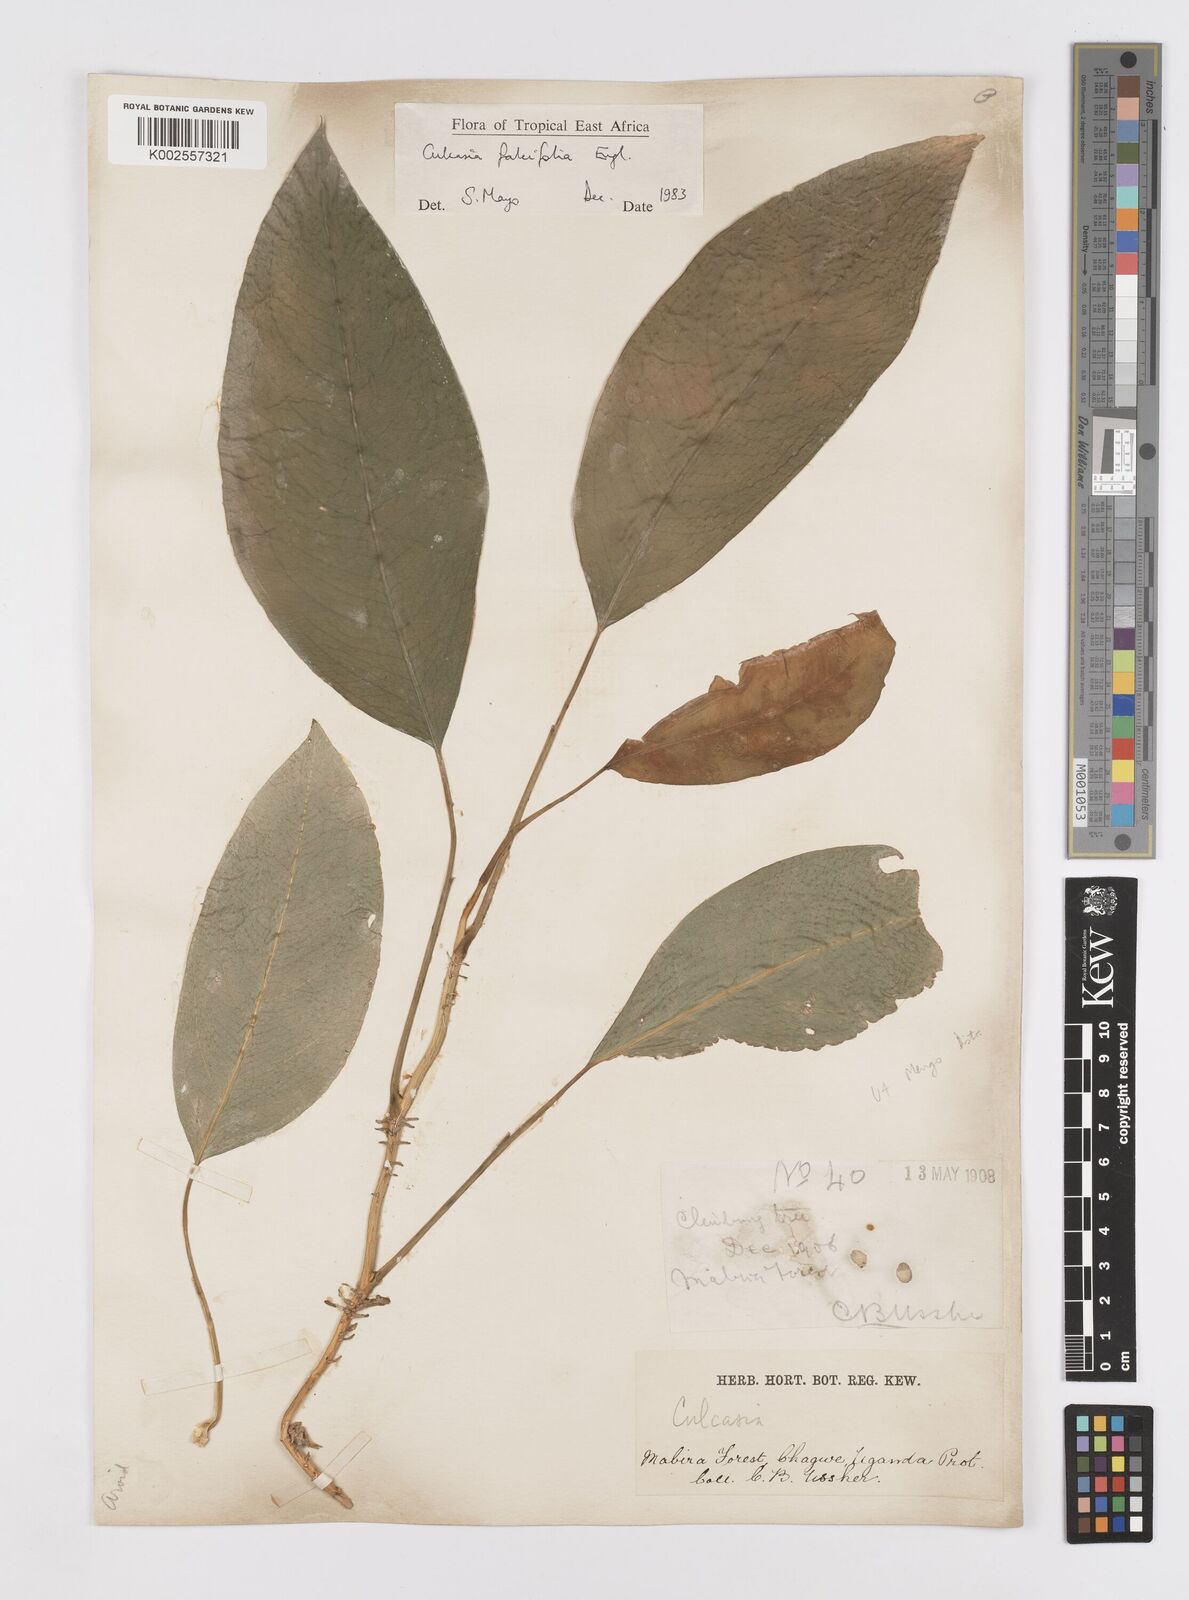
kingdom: Plantae
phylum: Tracheophyta
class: Liliopsida
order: Alismatales
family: Araceae
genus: Culcasia
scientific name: Culcasia falcifolia
